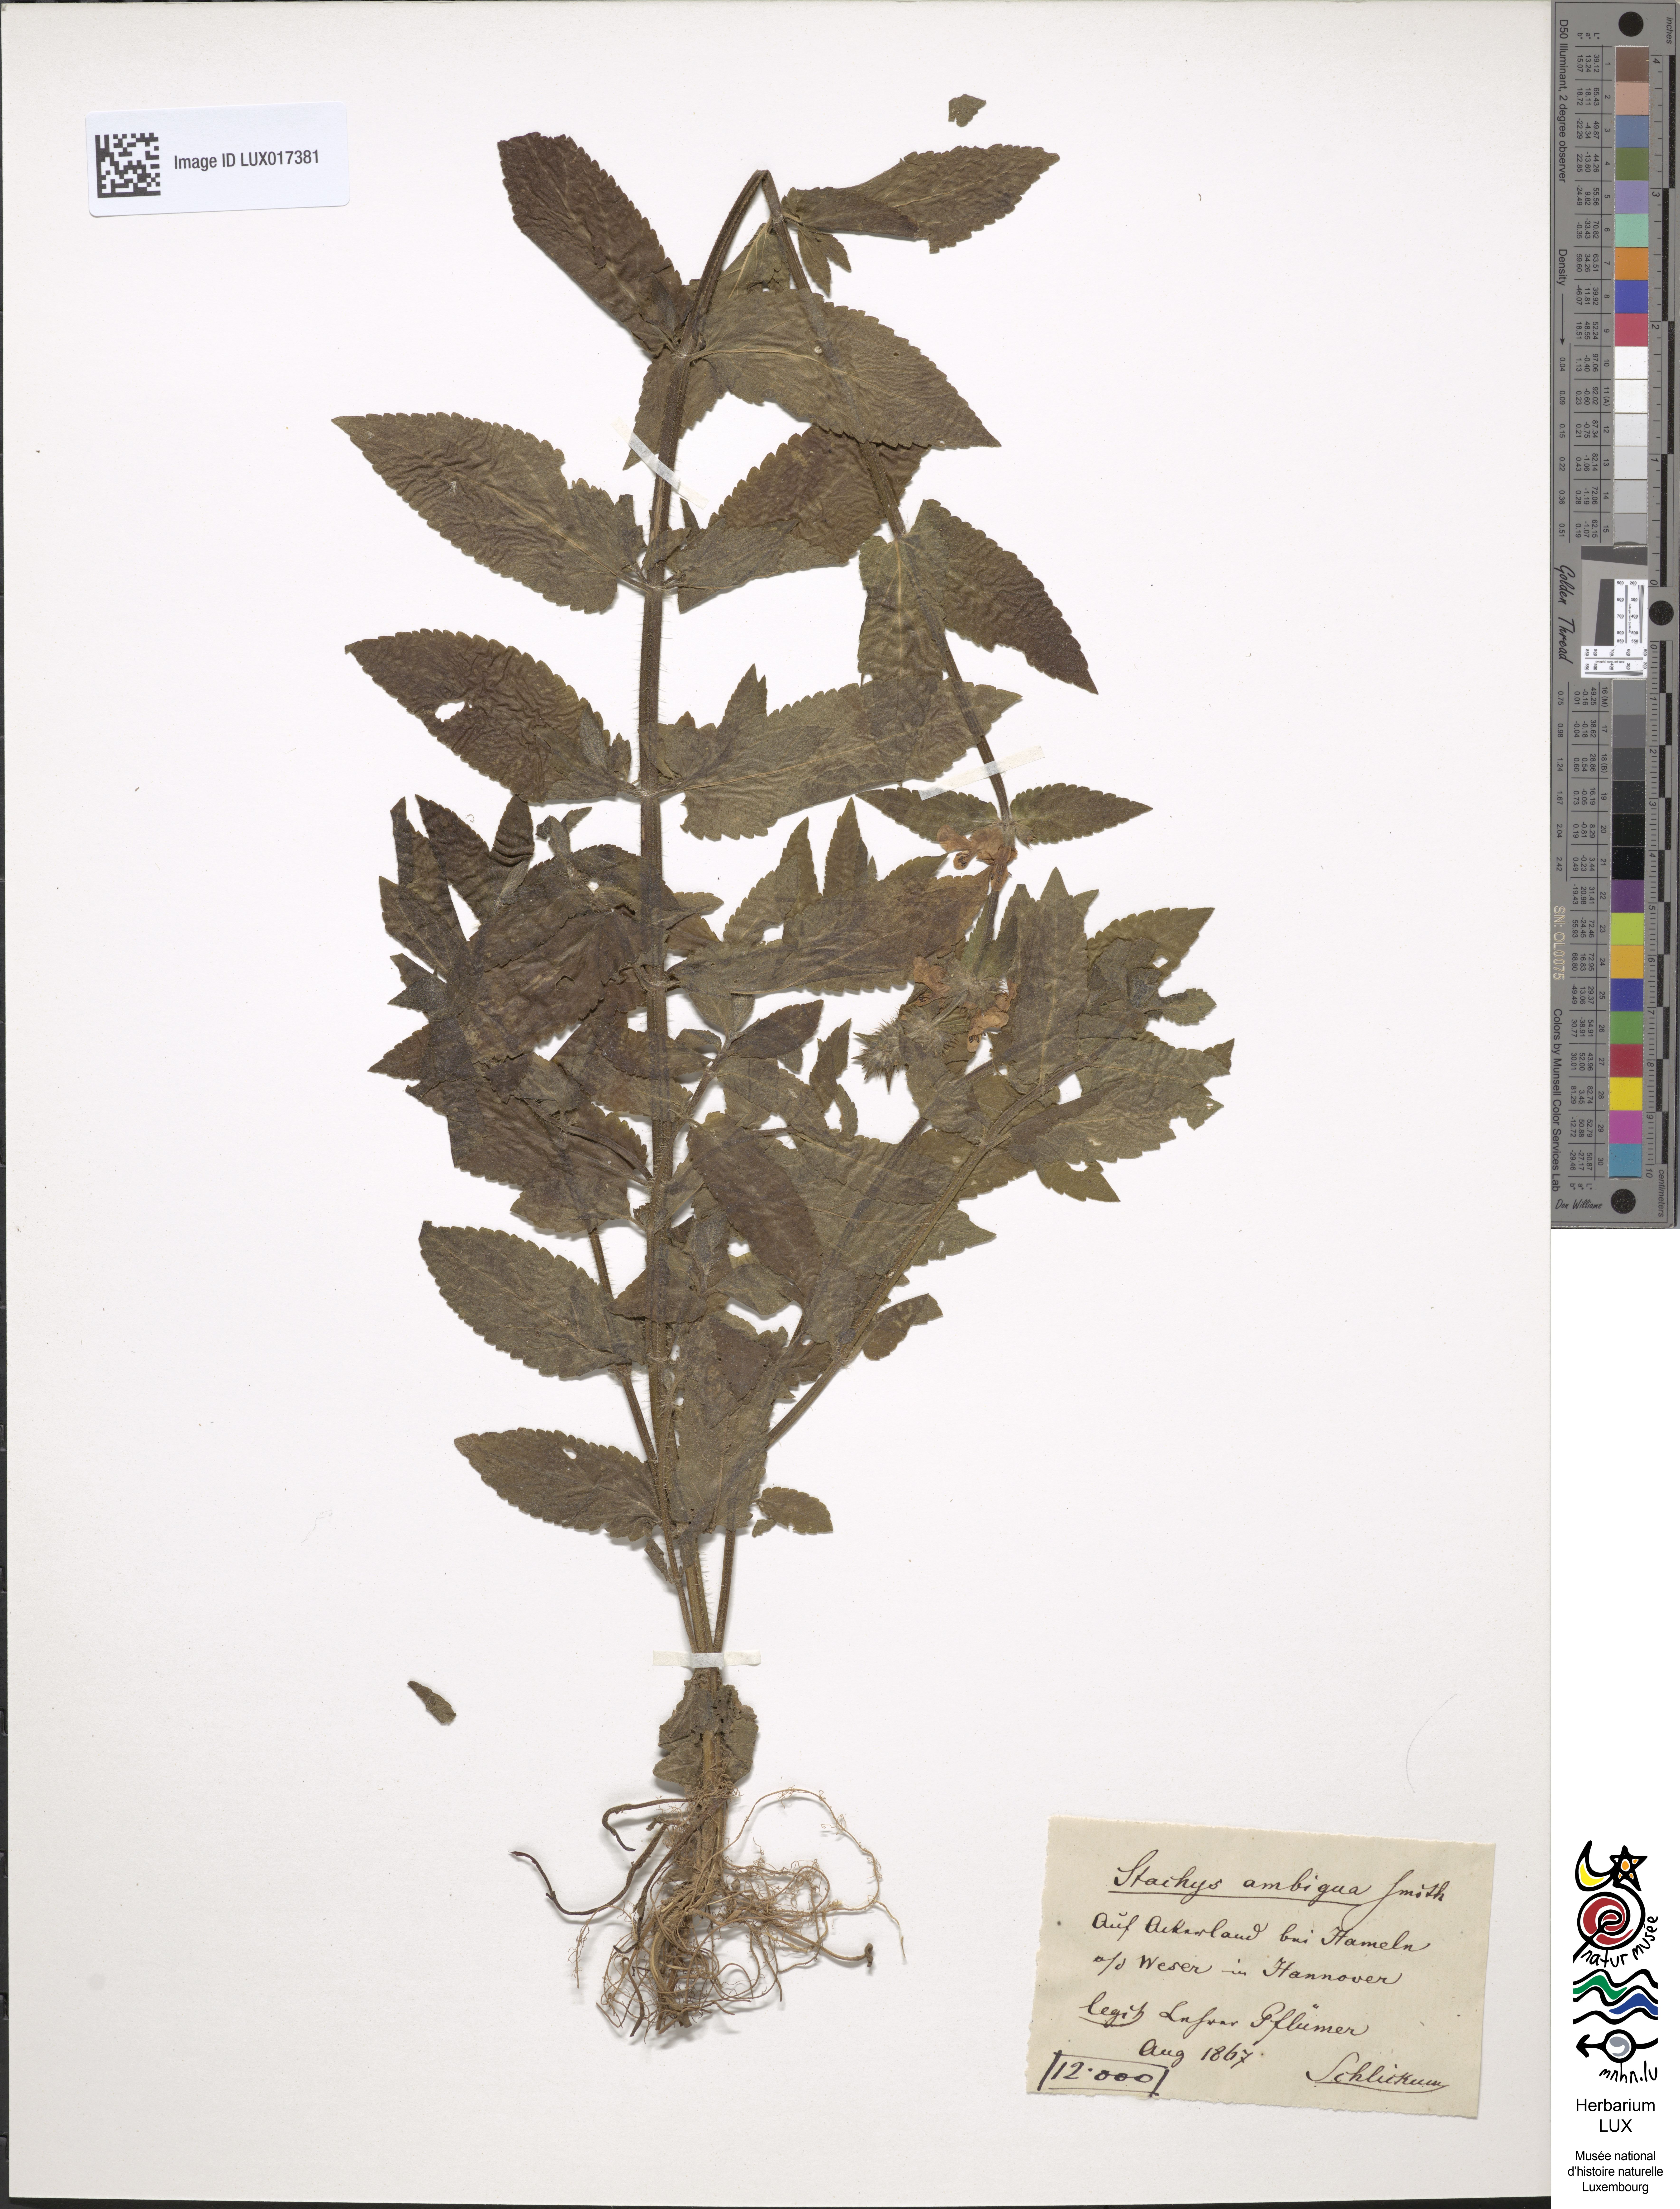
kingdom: Plantae
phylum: Tracheophyta
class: Magnoliopsida
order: Lamiales
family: Lamiaceae
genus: Stachys
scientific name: Stachys ambigua
